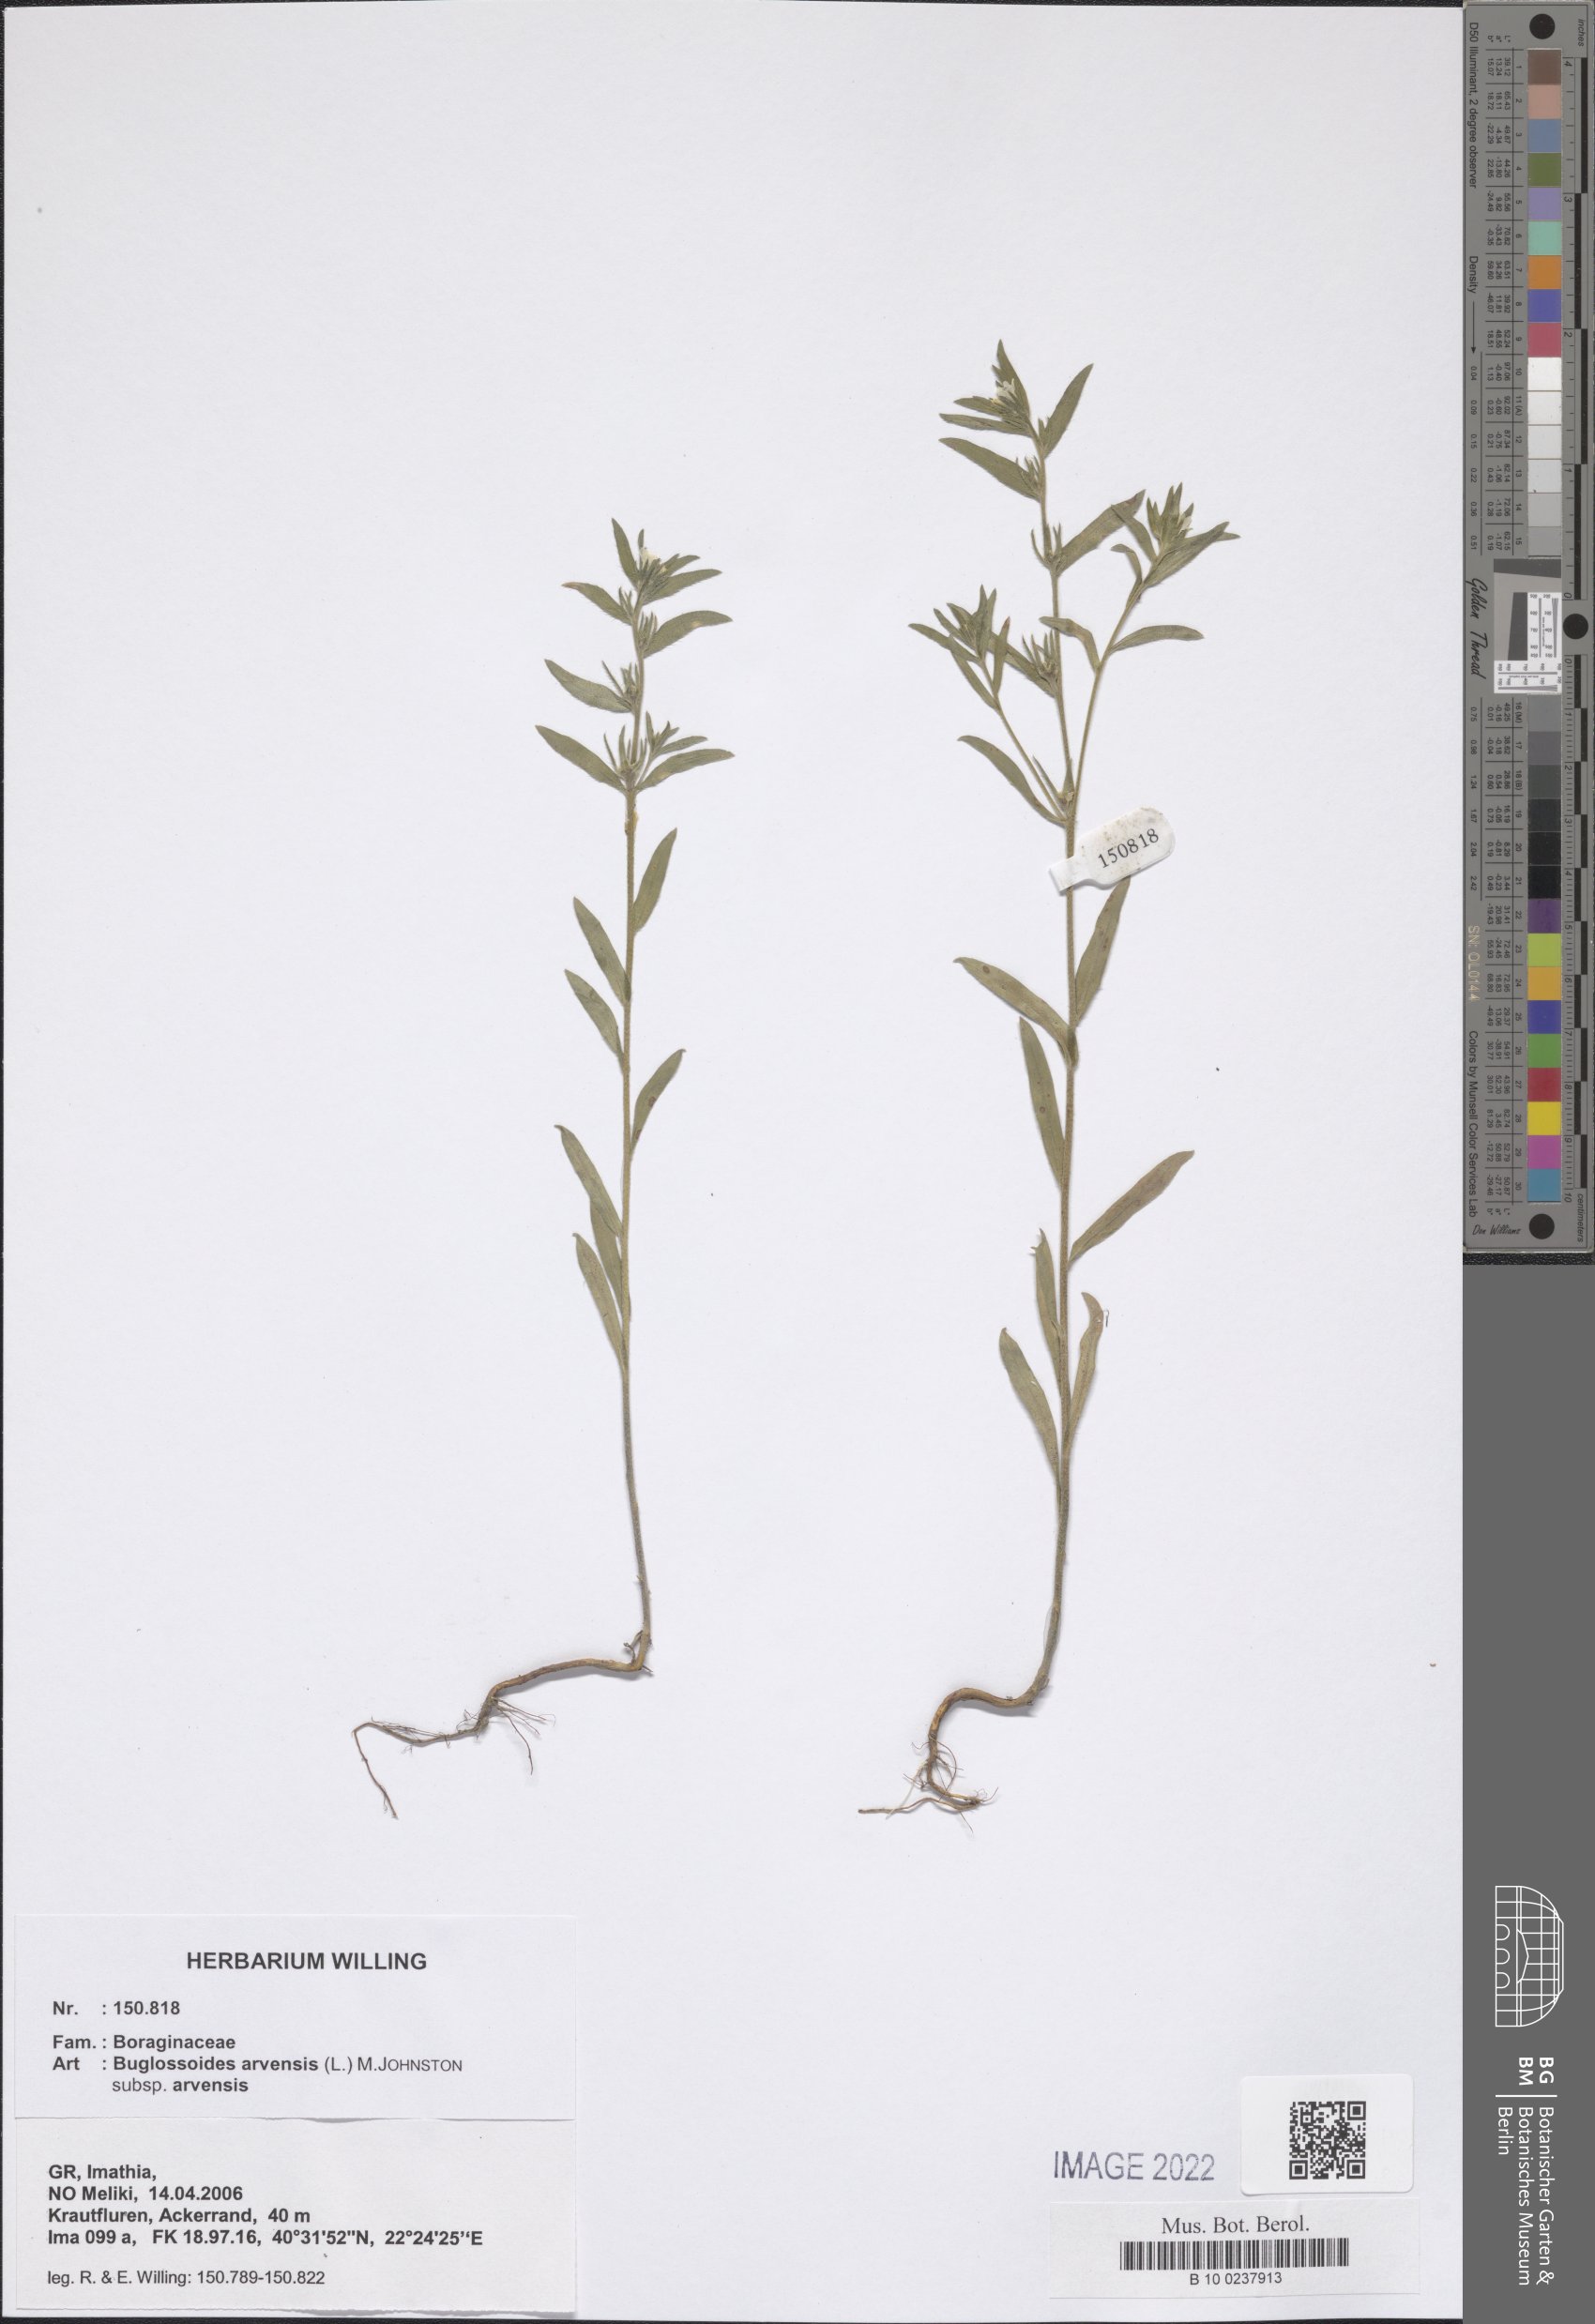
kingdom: Plantae
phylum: Tracheophyta
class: Magnoliopsida
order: Boraginales
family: Boraginaceae
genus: Buglossoides
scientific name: Buglossoides arvensis
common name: Corn gromwell
